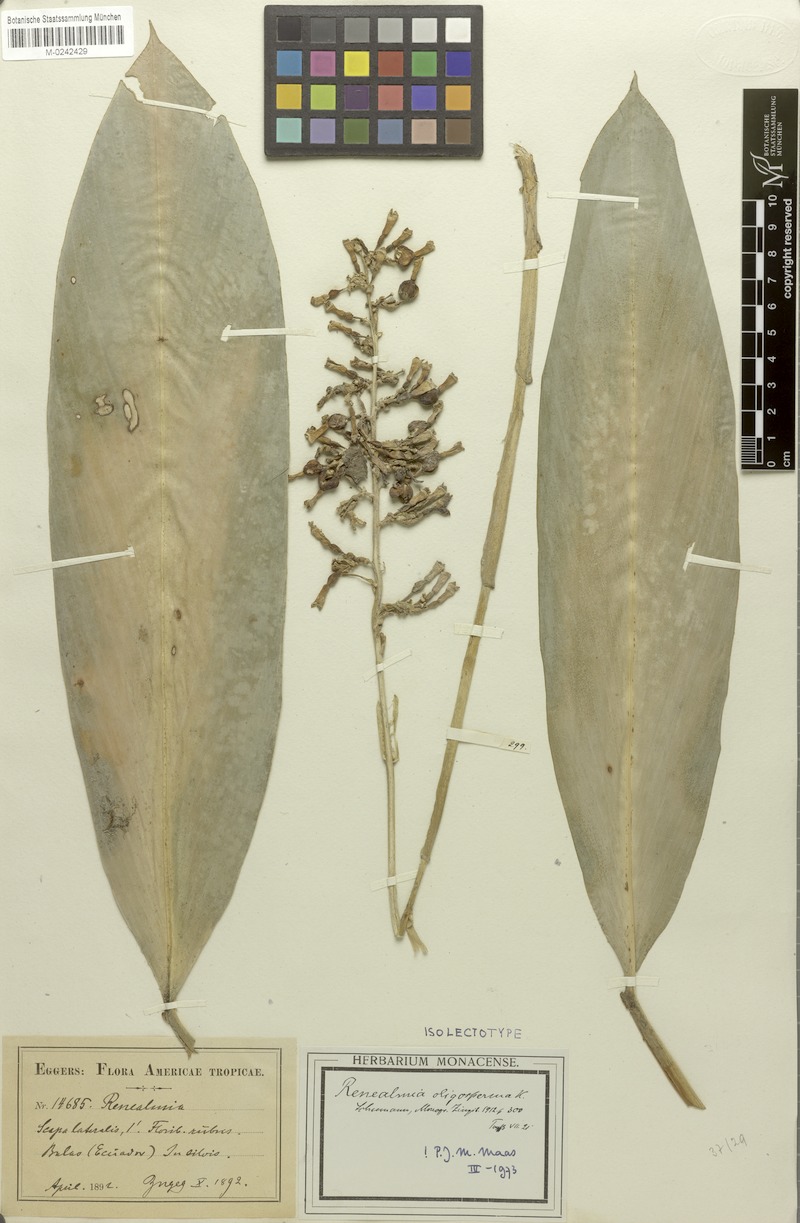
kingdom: Plantae
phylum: Tracheophyta
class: Liliopsida
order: Zingiberales
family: Zingiberaceae
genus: Renealmia
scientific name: Renealmia oligosperma
